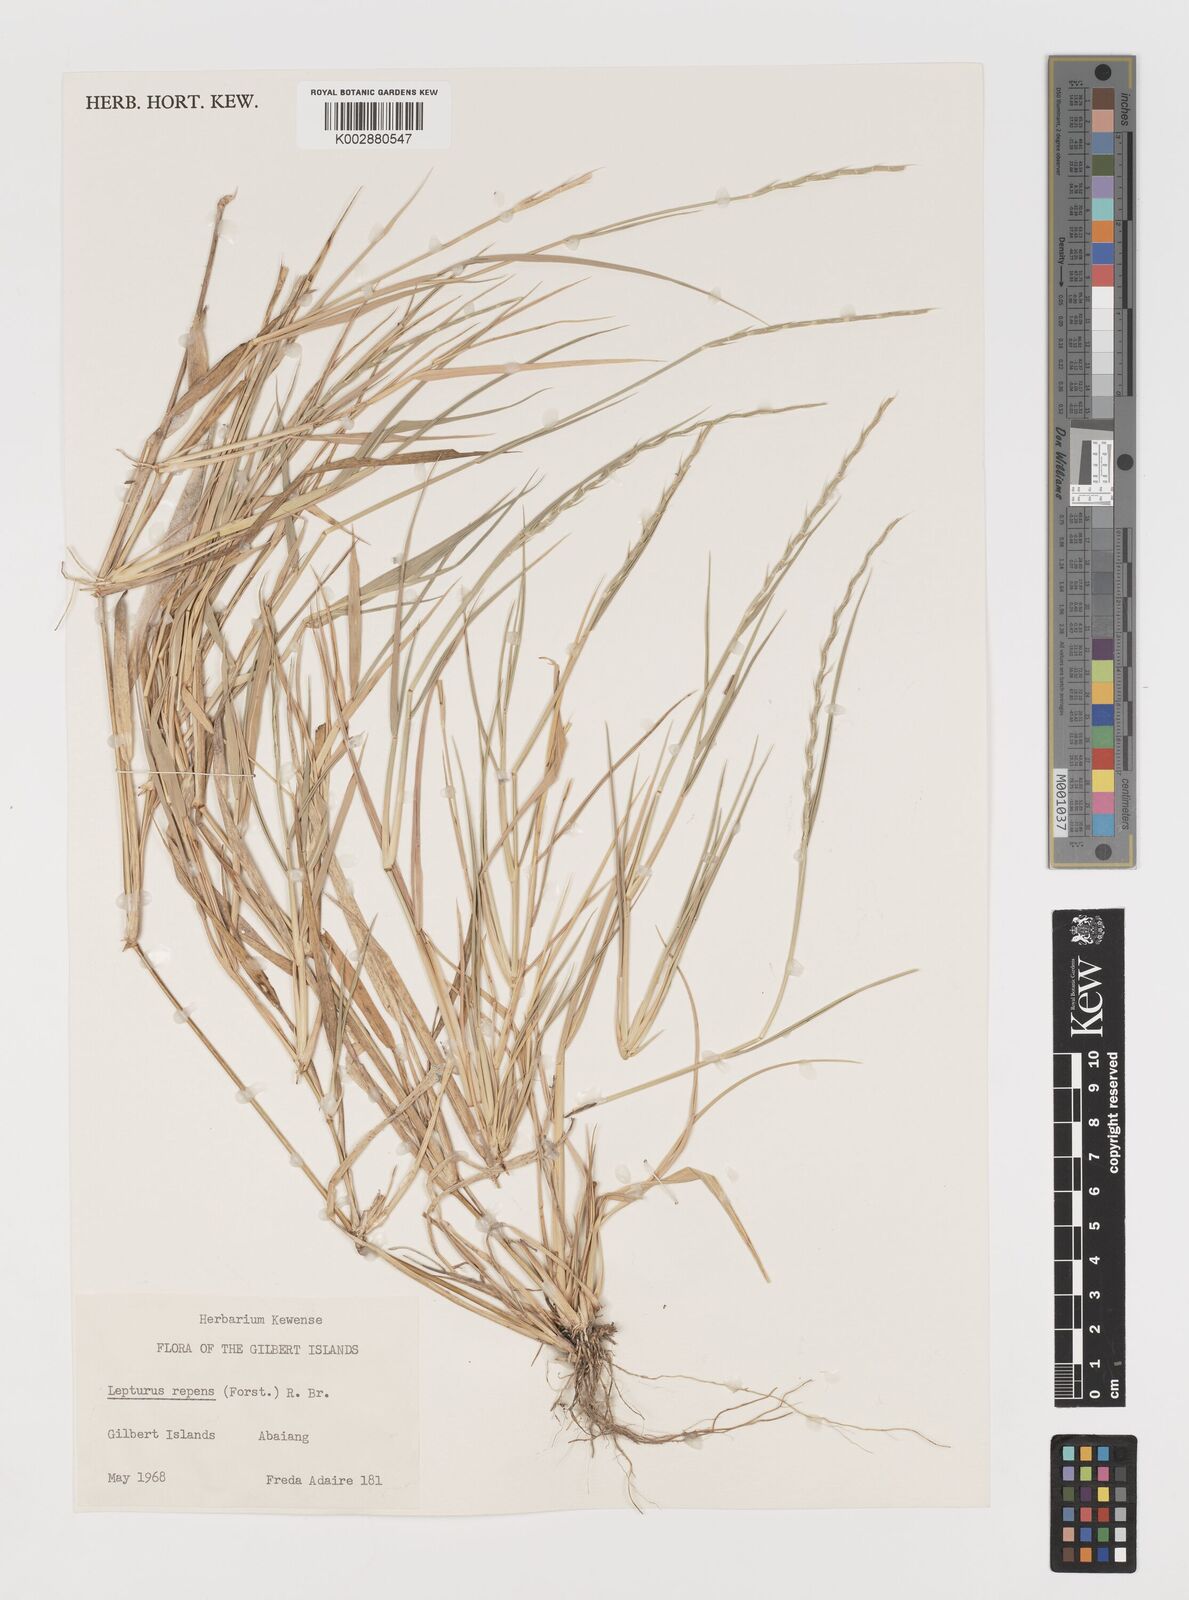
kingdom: Plantae
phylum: Tracheophyta
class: Liliopsida
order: Poales
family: Poaceae
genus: Lepturus
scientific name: Lepturus repens
